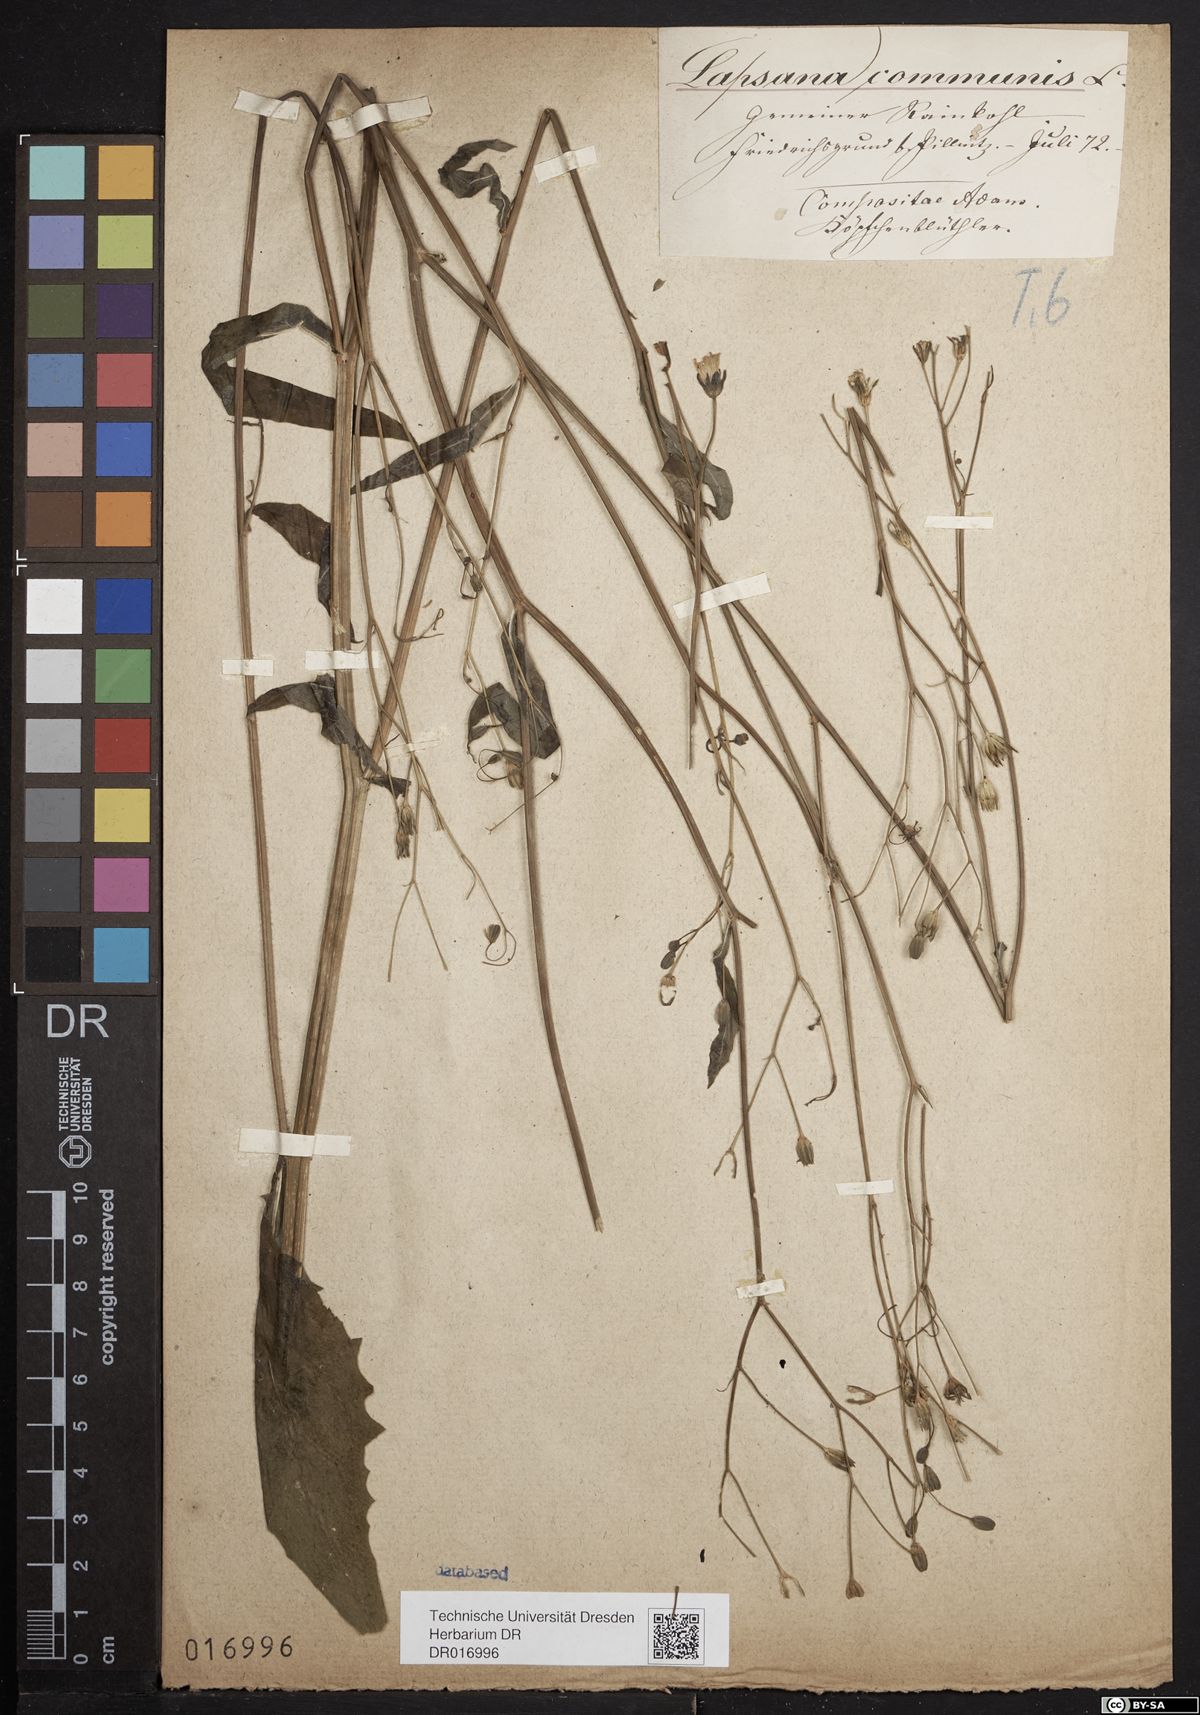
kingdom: Plantae
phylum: Tracheophyta
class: Magnoliopsida
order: Asterales
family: Asteraceae
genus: Lapsana
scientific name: Lapsana communis
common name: Nipplewort
